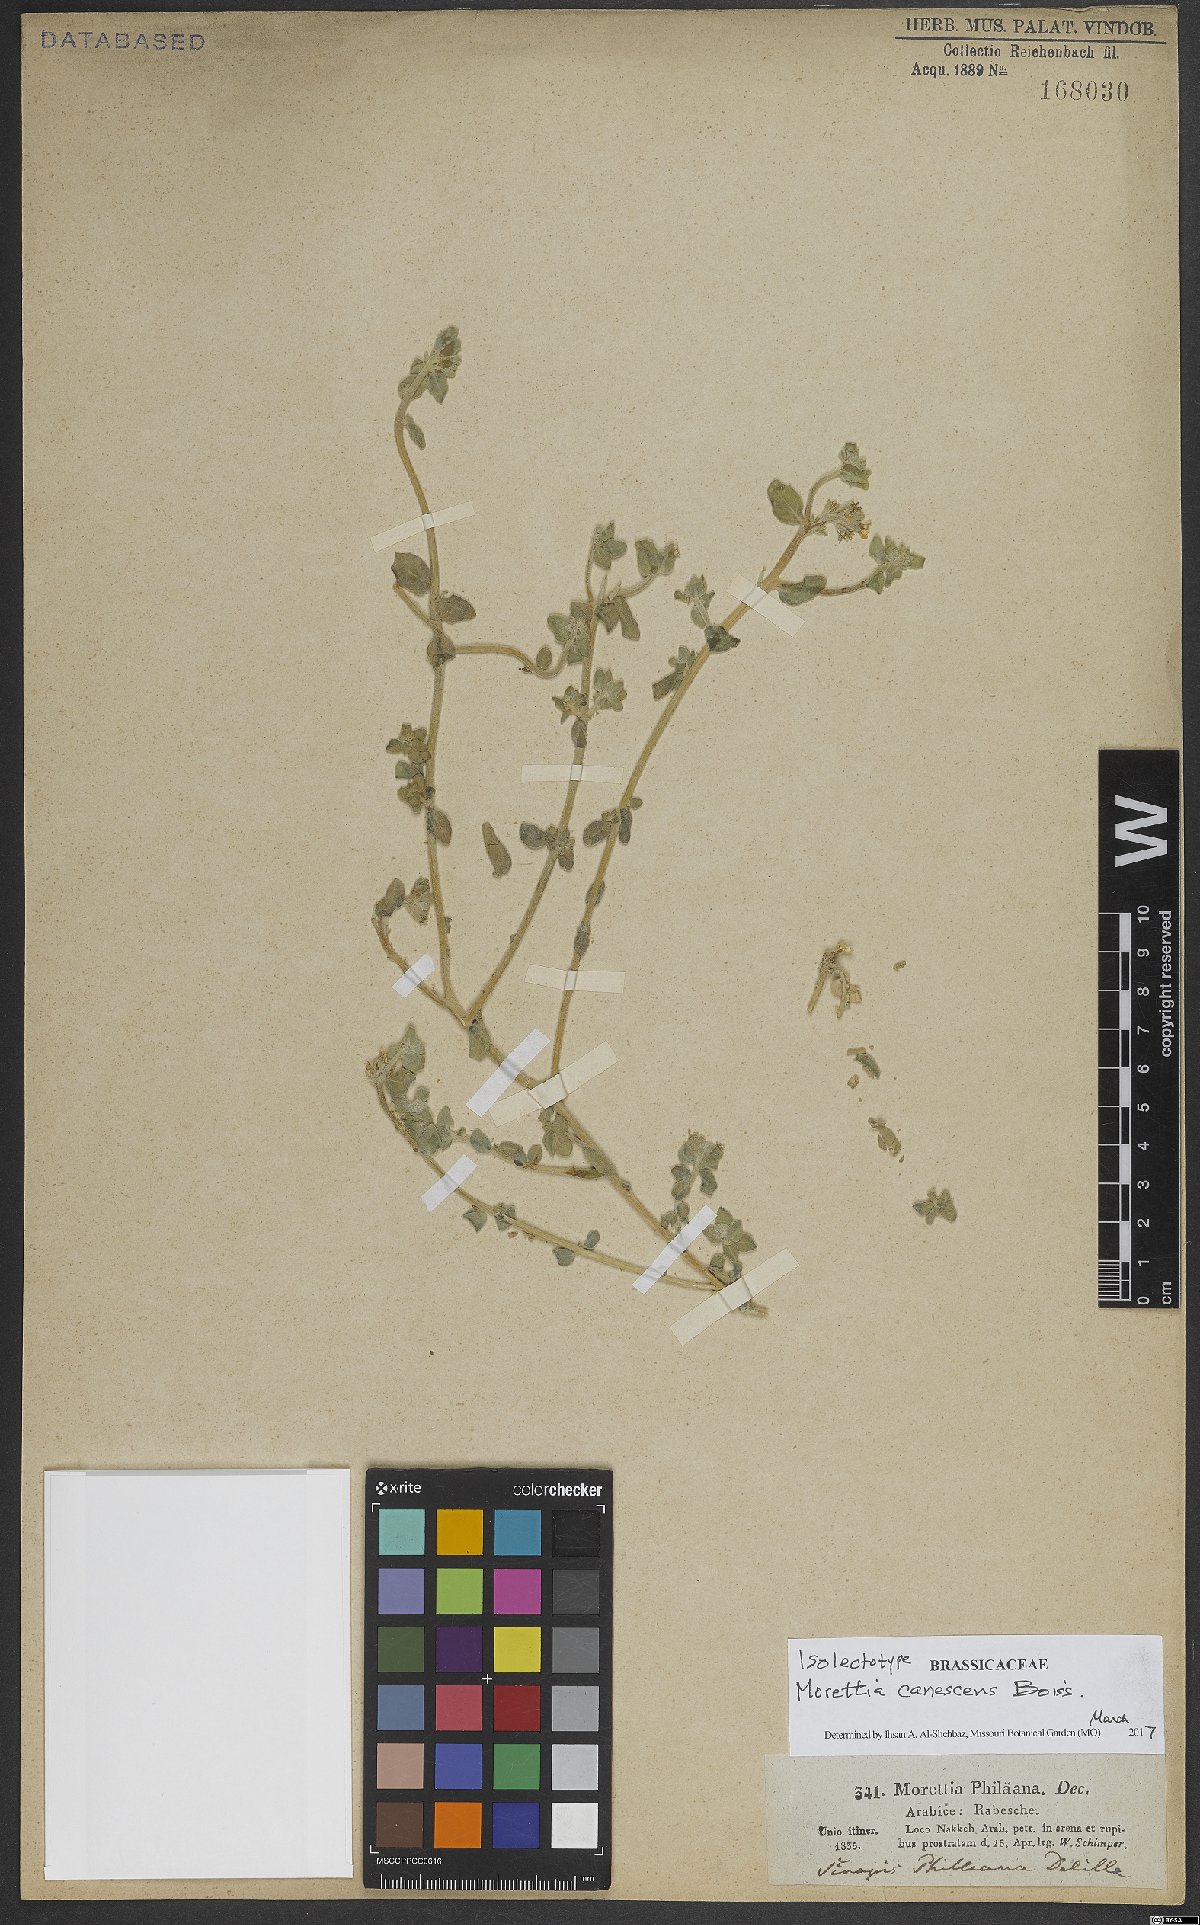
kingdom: Plantae
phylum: Tracheophyta
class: Magnoliopsida
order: Brassicales
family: Brassicaceae
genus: Morettia
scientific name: Morettia canescens
